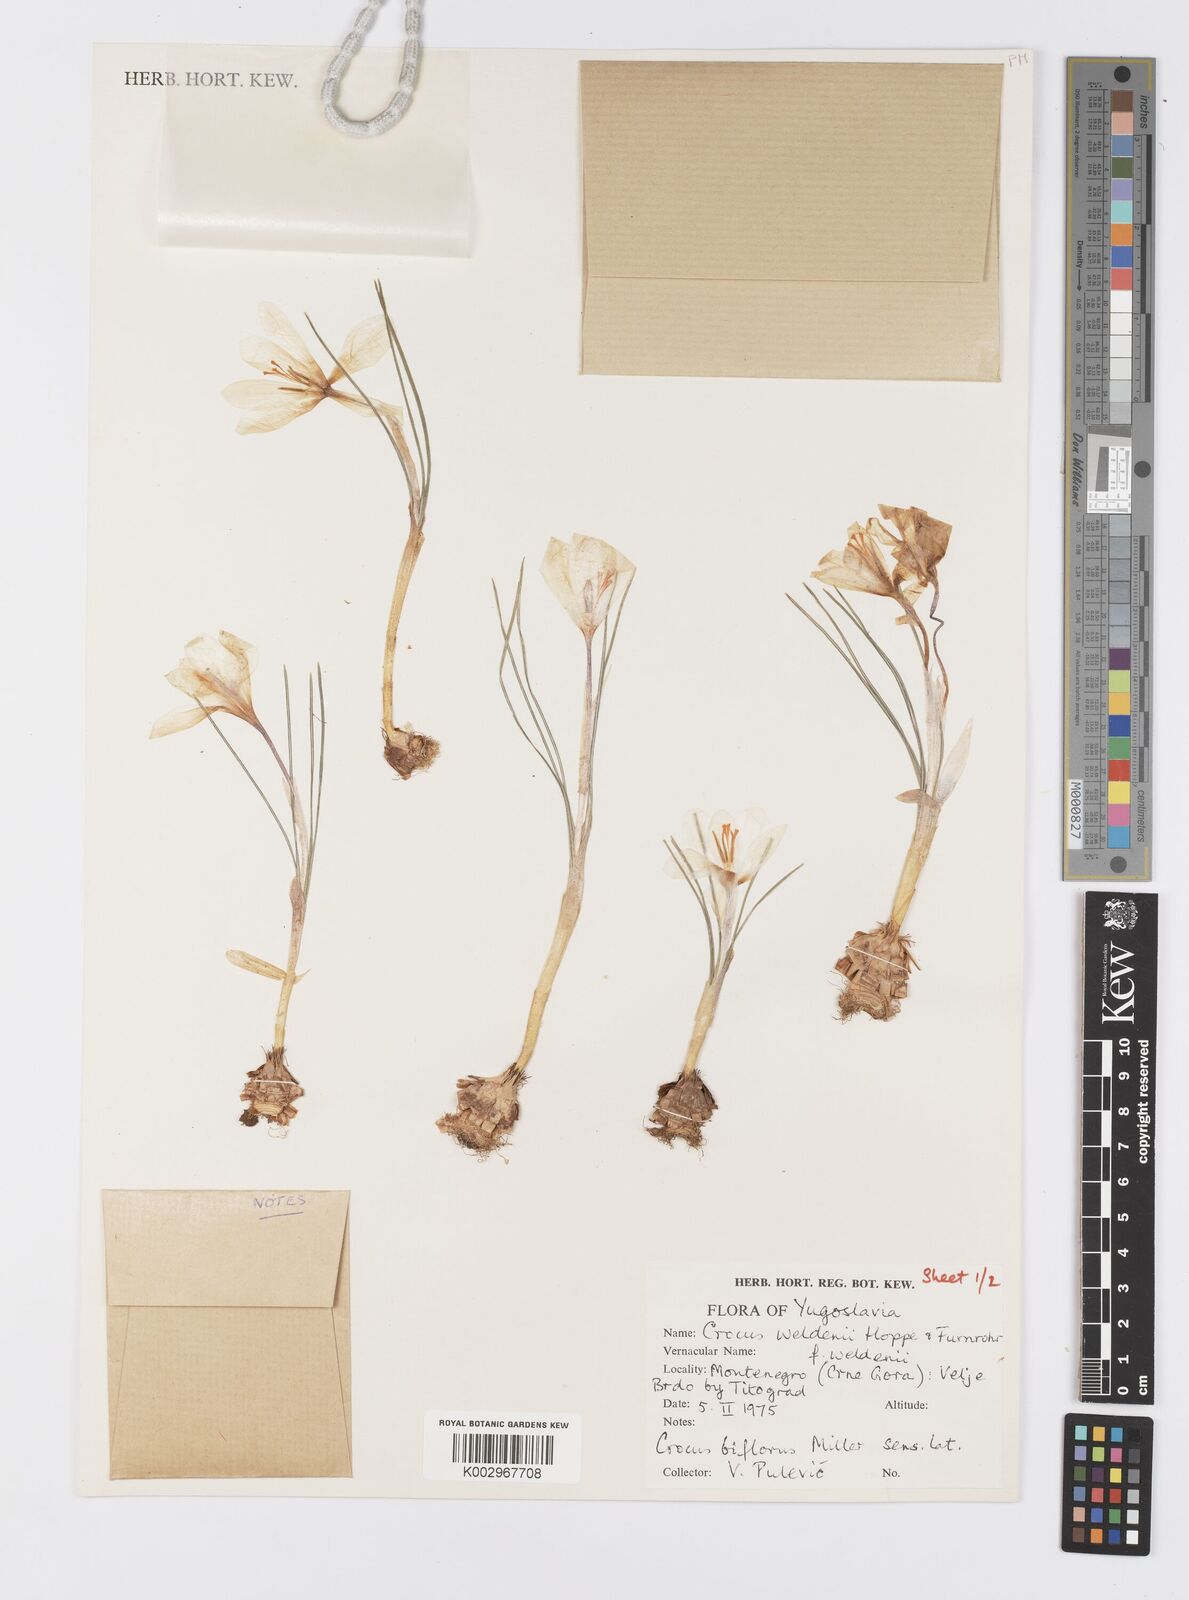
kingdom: Plantae
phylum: Tracheophyta
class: Liliopsida
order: Asparagales
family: Iridaceae
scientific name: Iridaceae
